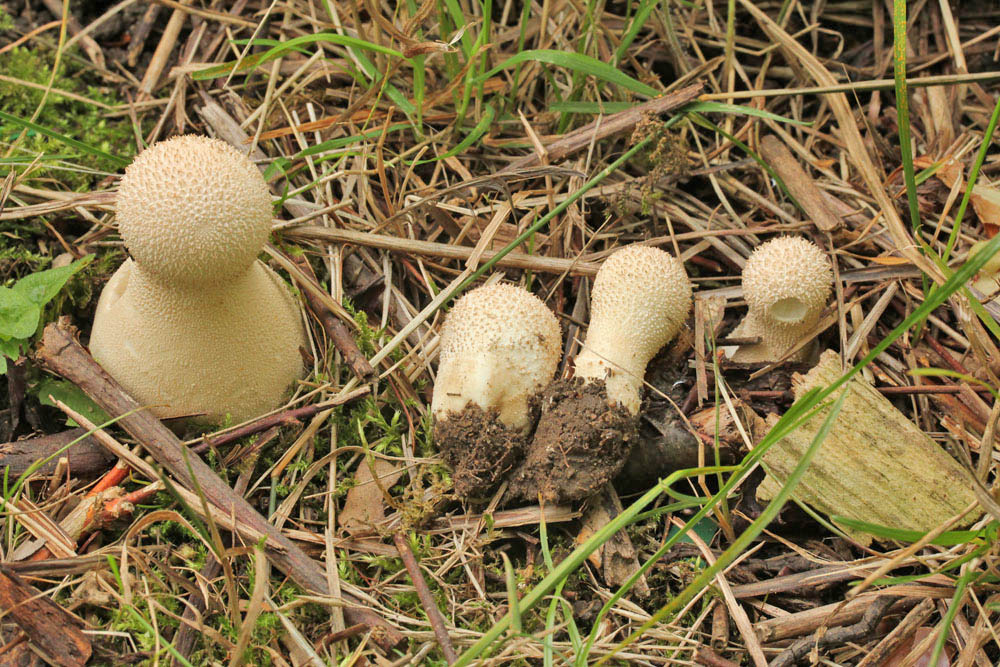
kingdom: Fungi
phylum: Basidiomycota
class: Agaricomycetes
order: Agaricales
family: Lycoperdaceae
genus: Lycoperdon
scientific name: Lycoperdon excipuliforme
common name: højstokket støvbold
